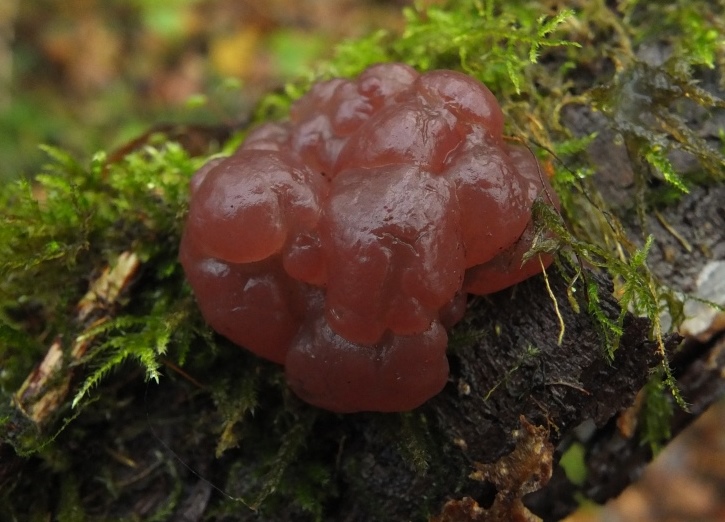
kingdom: Fungi
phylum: Ascomycota
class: Leotiomycetes
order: Helotiales
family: Gelatinodiscaceae
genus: Ascotremella
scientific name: Ascotremella faginea
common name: hjerne-bævreskive
